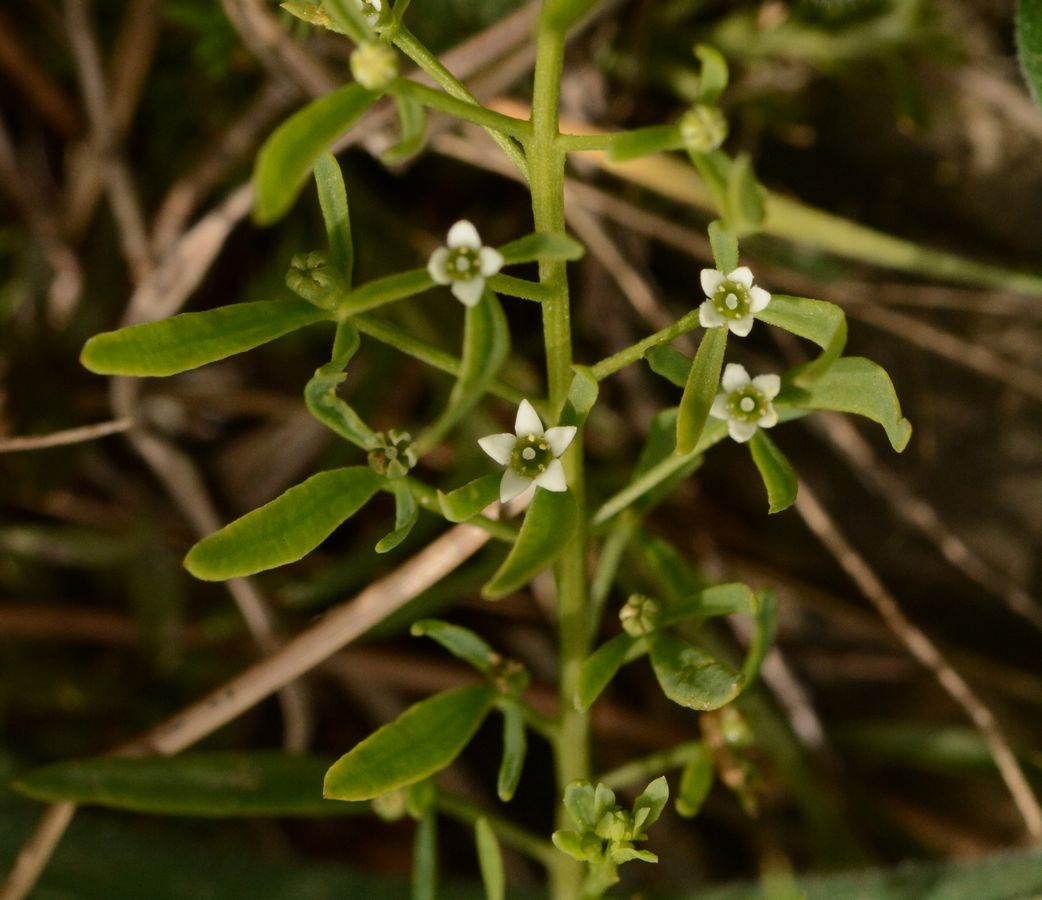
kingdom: Plantae
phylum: Tracheophyta
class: Magnoliopsida
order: Santalales
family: Thesiaceae
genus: Thesium
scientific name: Thesium
